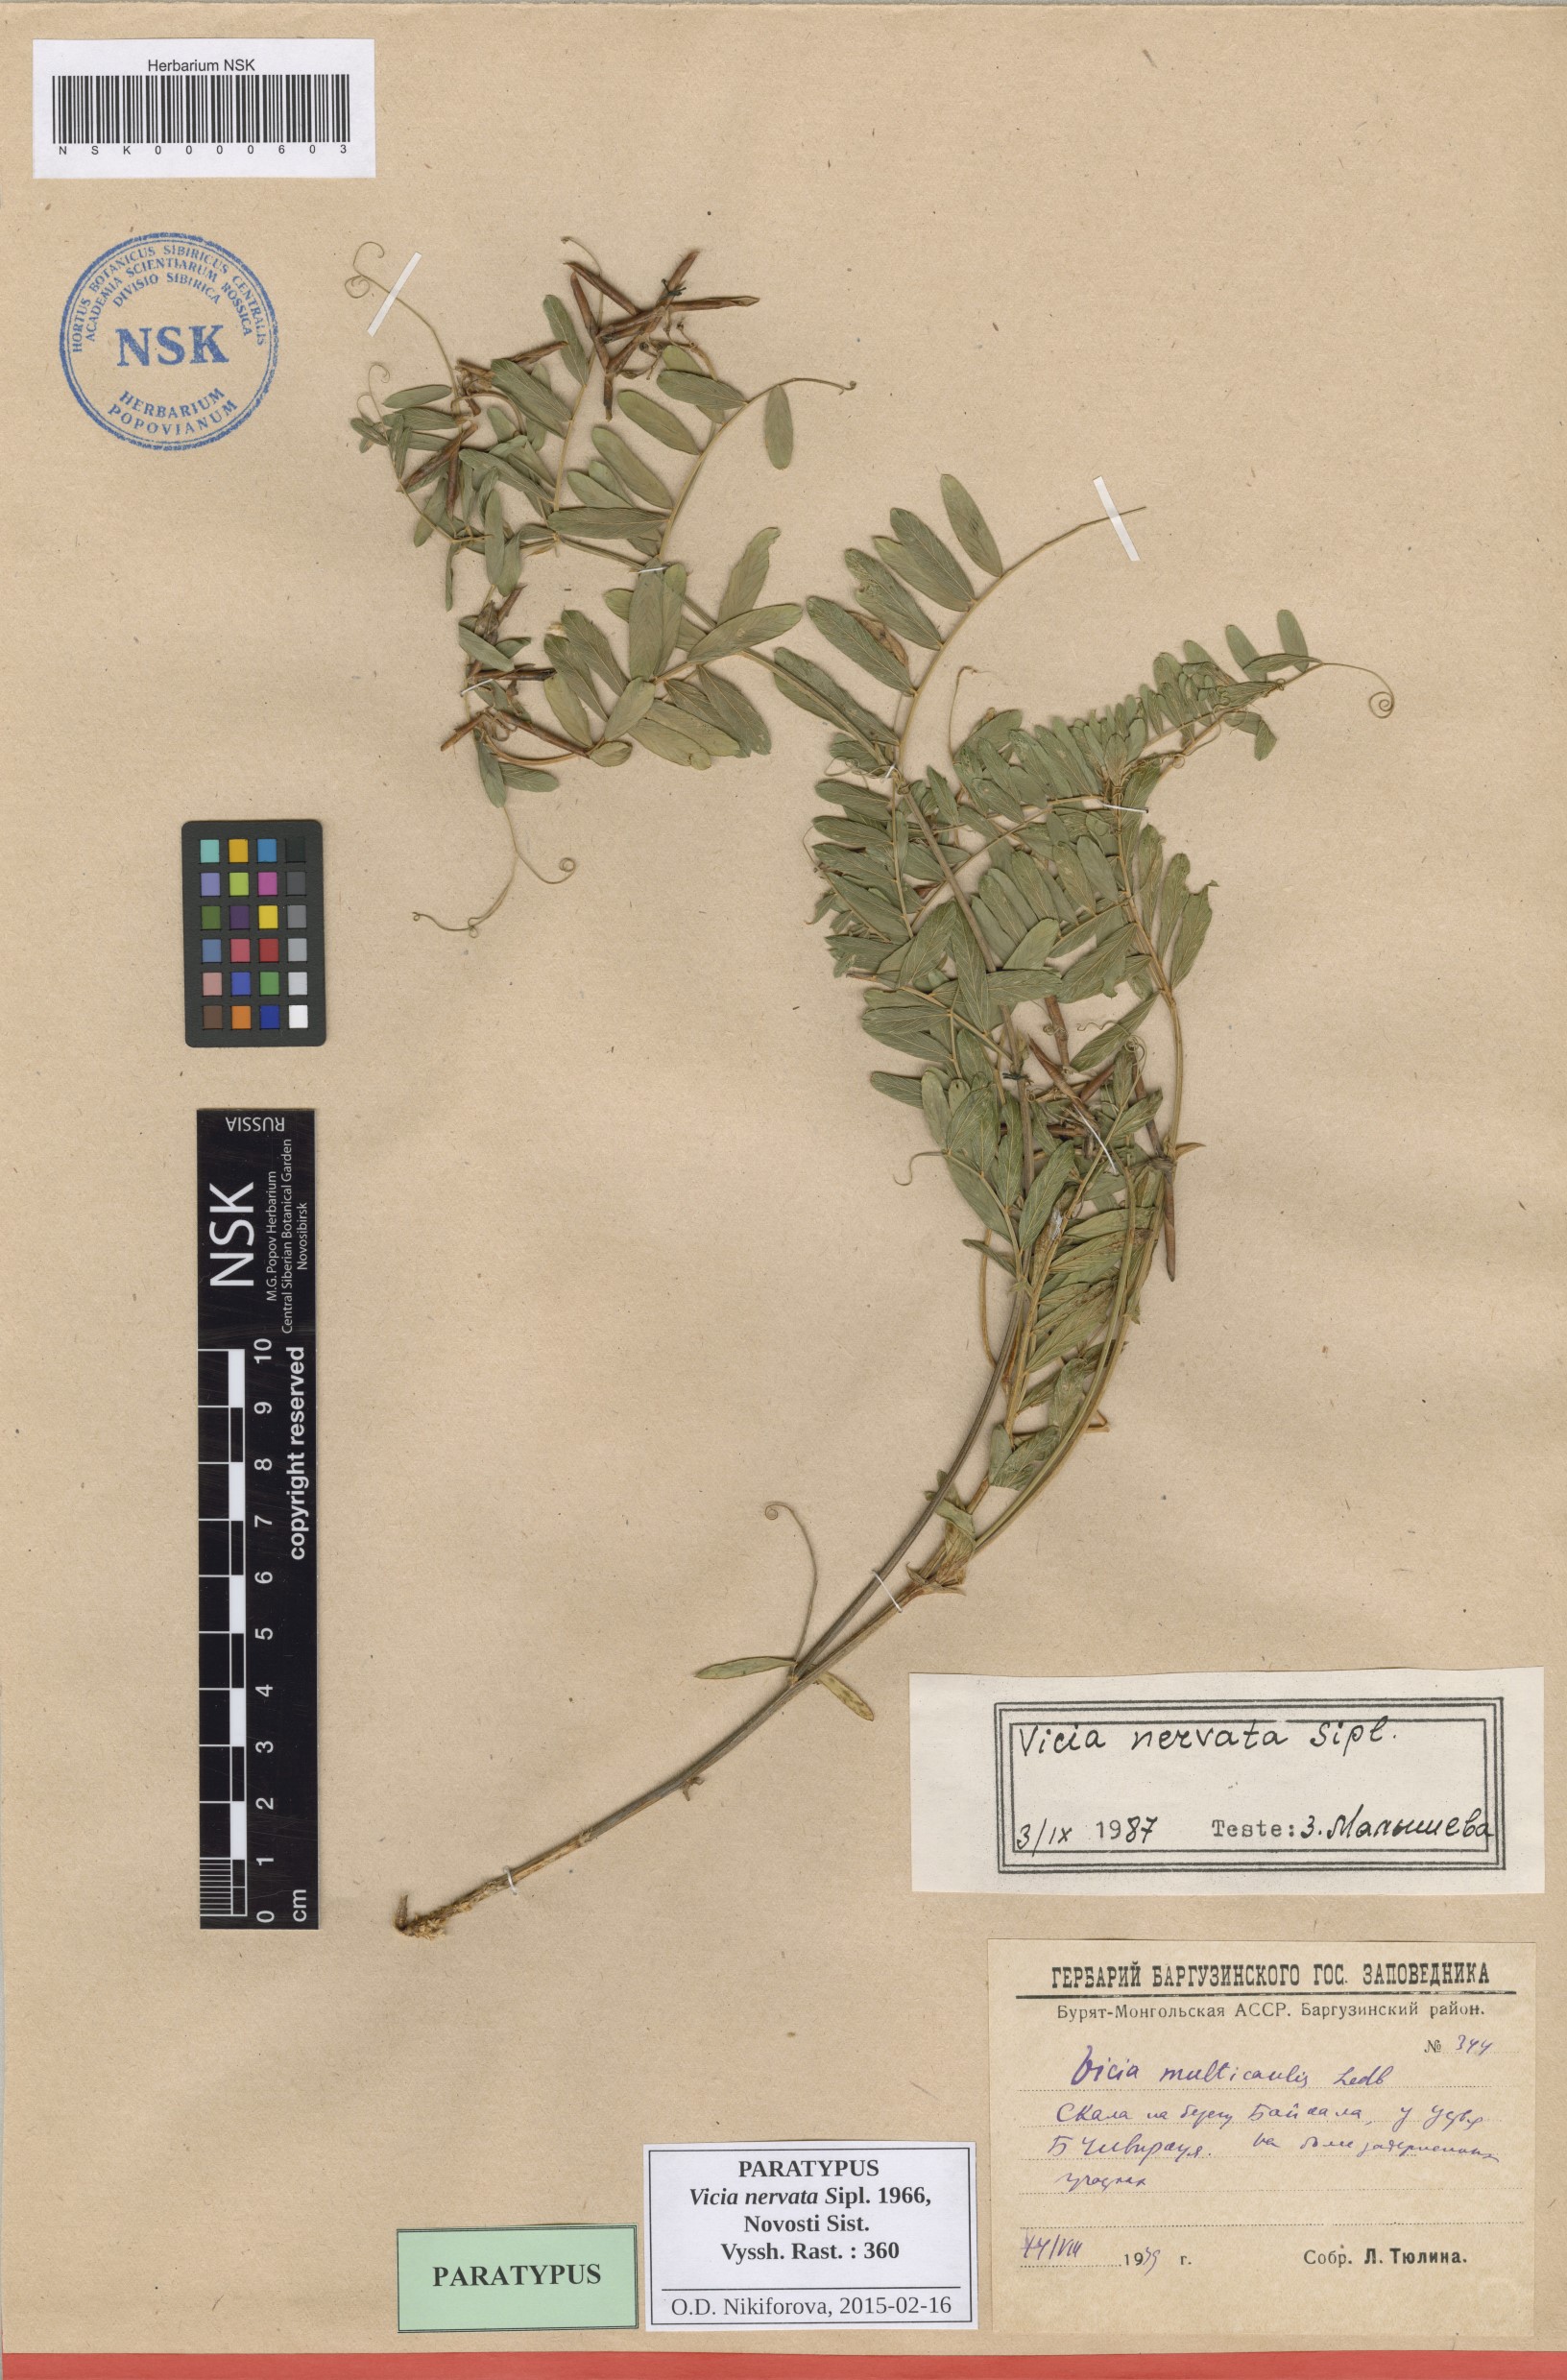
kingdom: Plantae
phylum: Tracheophyta
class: Magnoliopsida
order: Fabales
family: Fabaceae
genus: Vicia
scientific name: Vicia multicaulis
